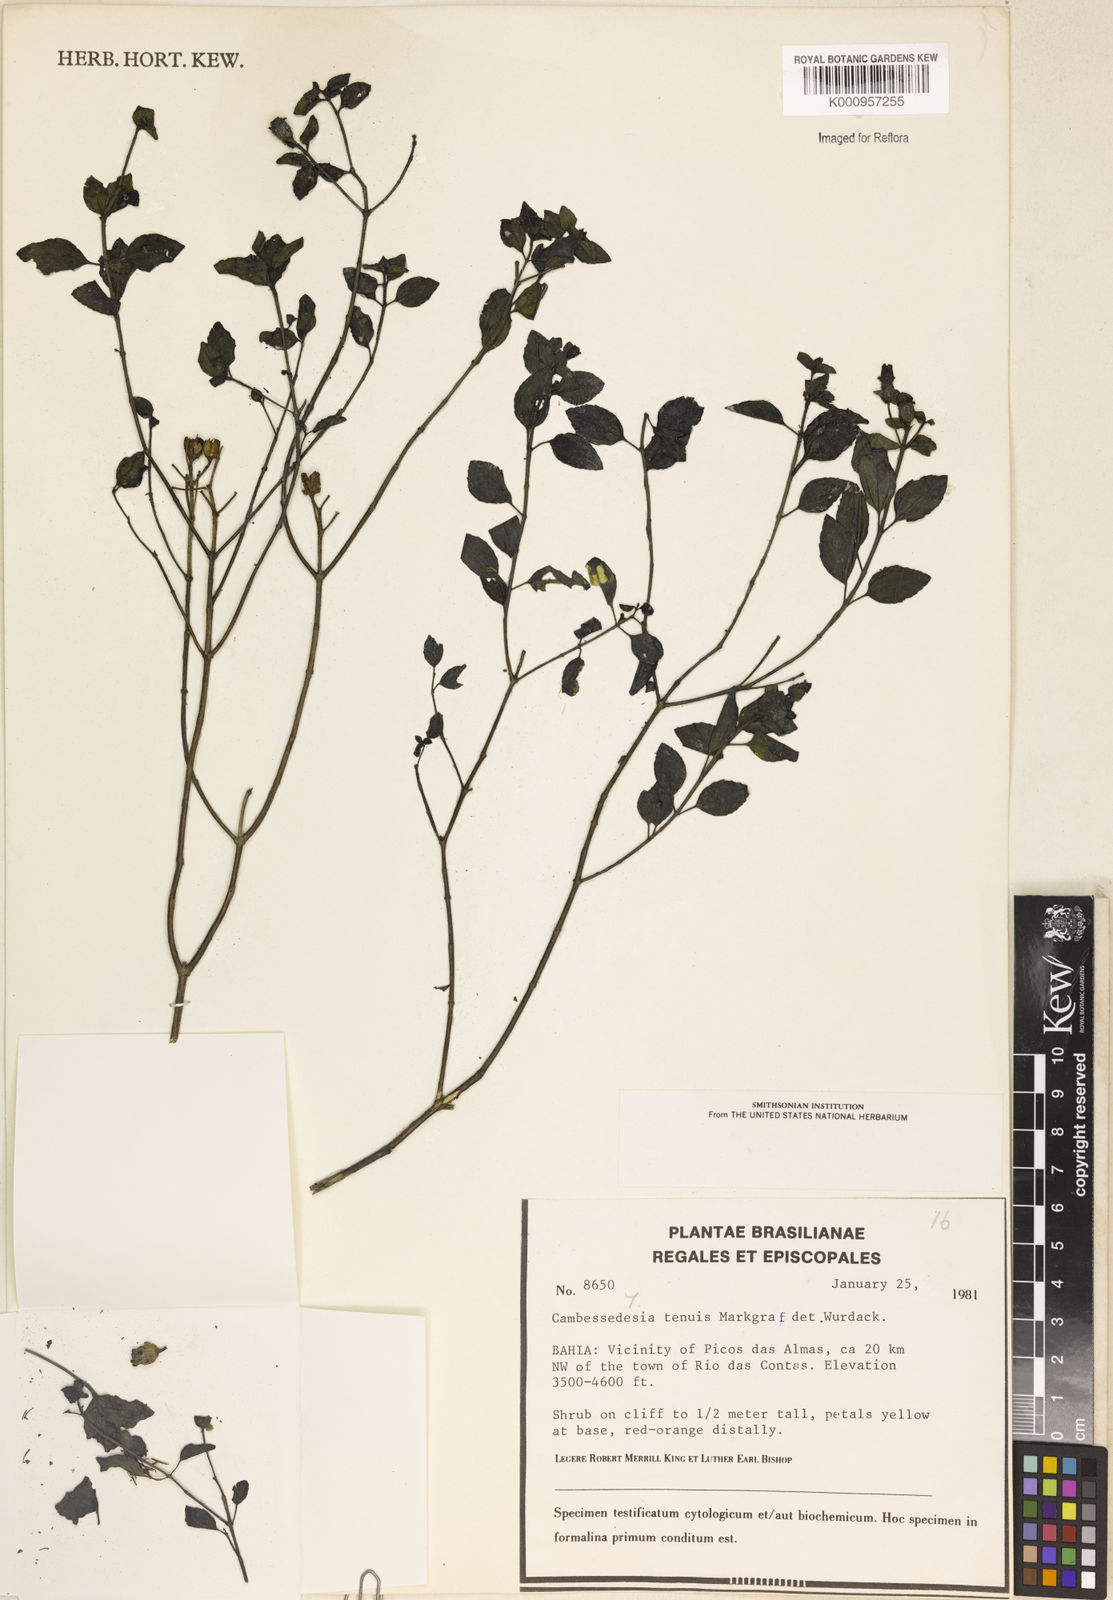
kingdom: Plantae
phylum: Tracheophyta
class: Magnoliopsida
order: Myrtales
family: Melastomataceae
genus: Cambessedesia
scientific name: Cambessedesia tenuis
